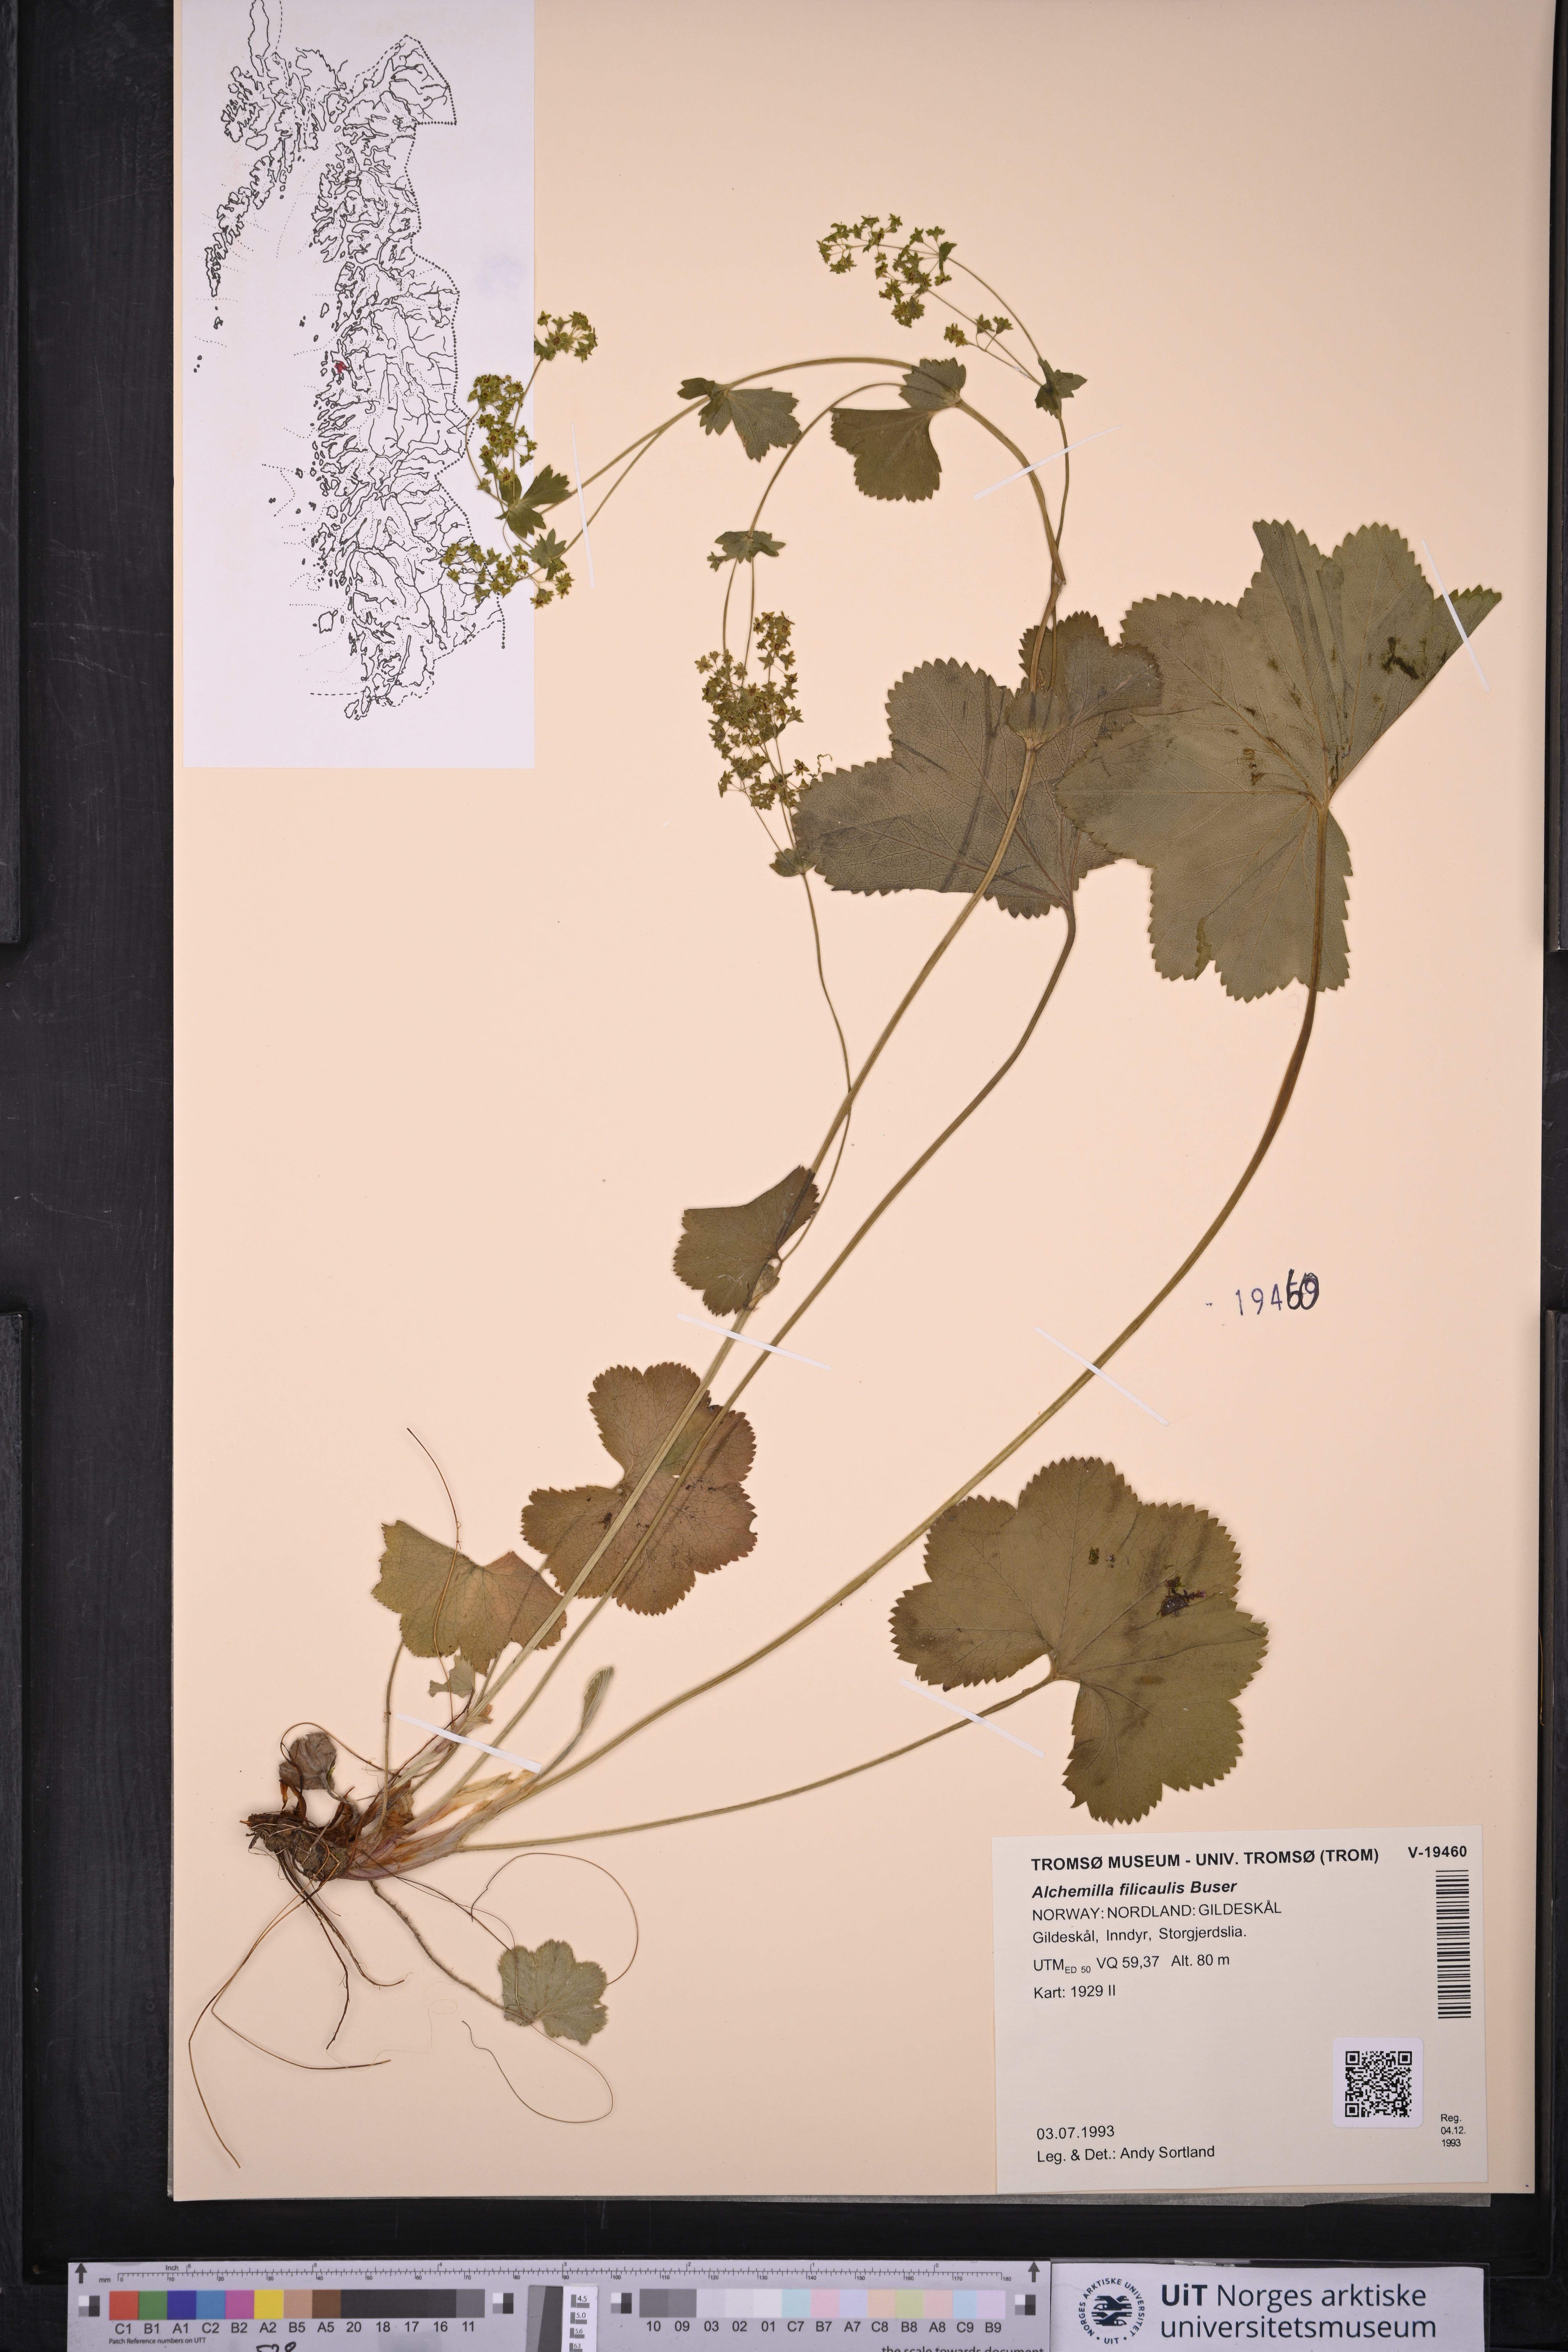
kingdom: Plantae
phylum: Tracheophyta
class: Magnoliopsida
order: Rosales
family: Rosaceae
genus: Alchemilla
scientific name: Alchemilla filicaulis
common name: Hairy lady's-mantle
